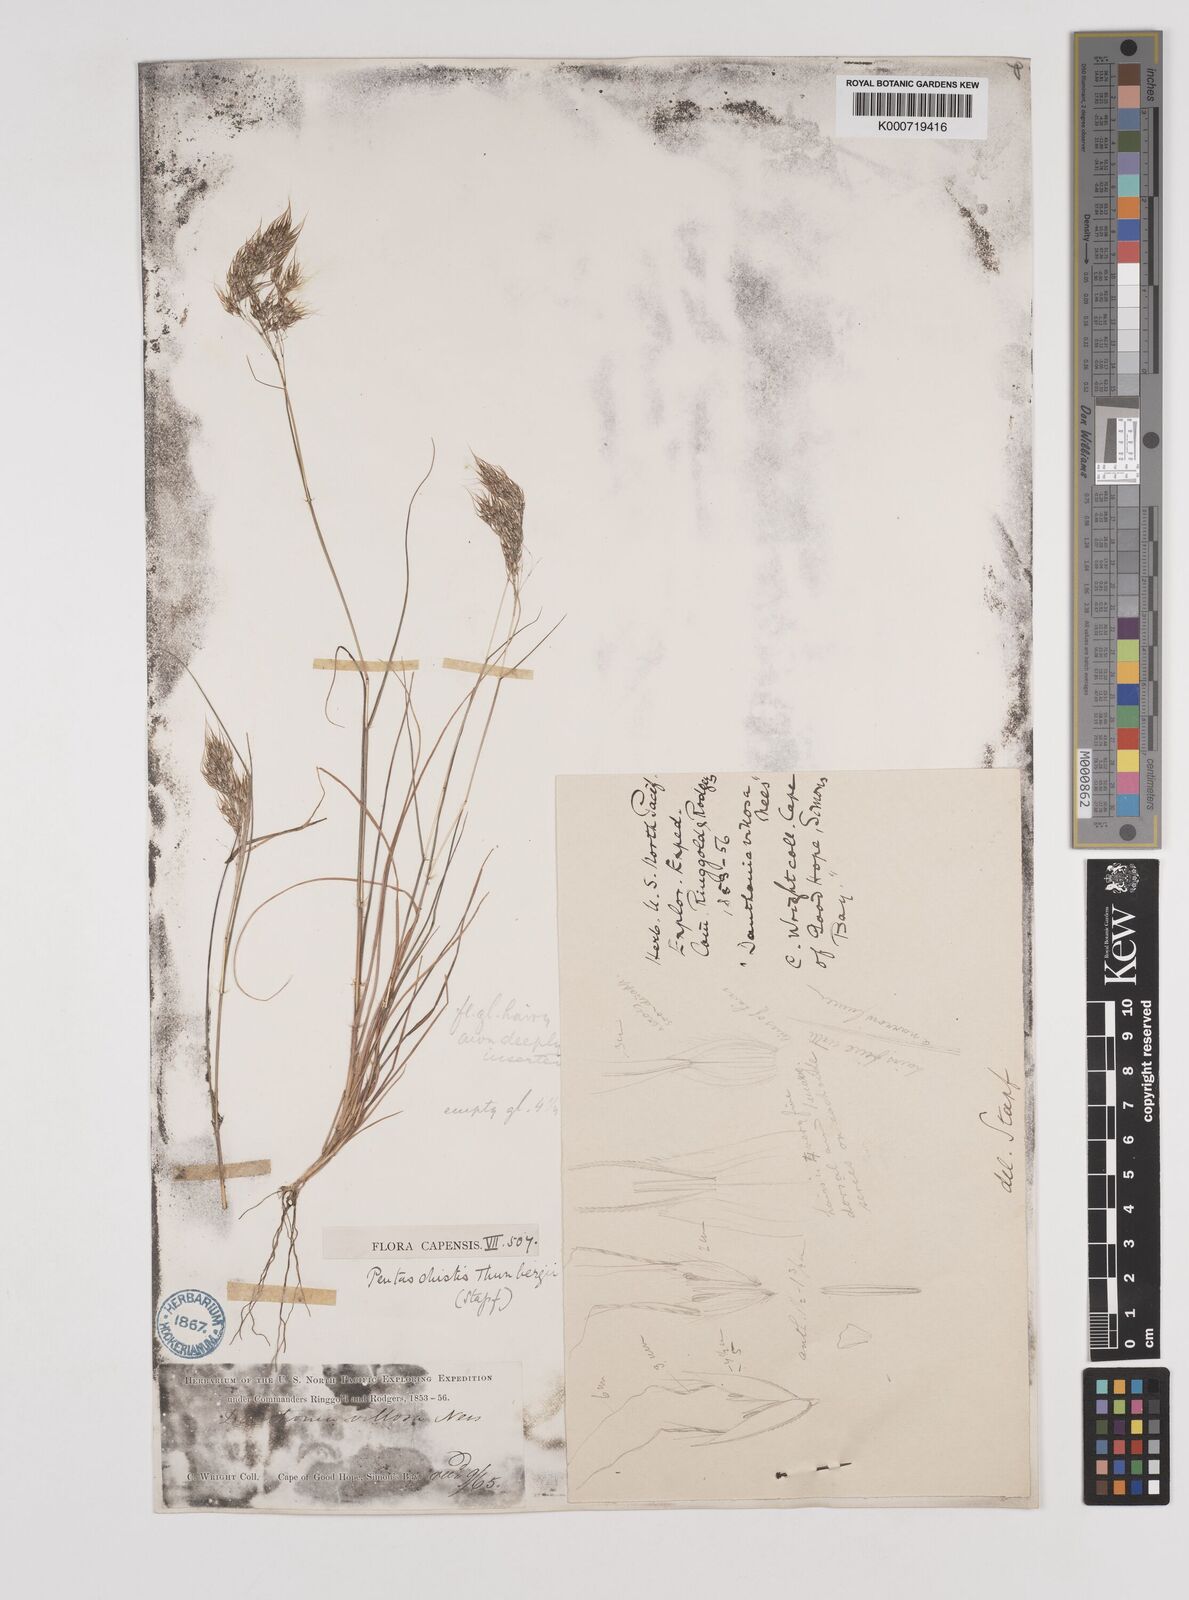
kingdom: Plantae
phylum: Tracheophyta
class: Liliopsida
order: Poales
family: Poaceae
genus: Pentameris
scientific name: Pentameris triseta
